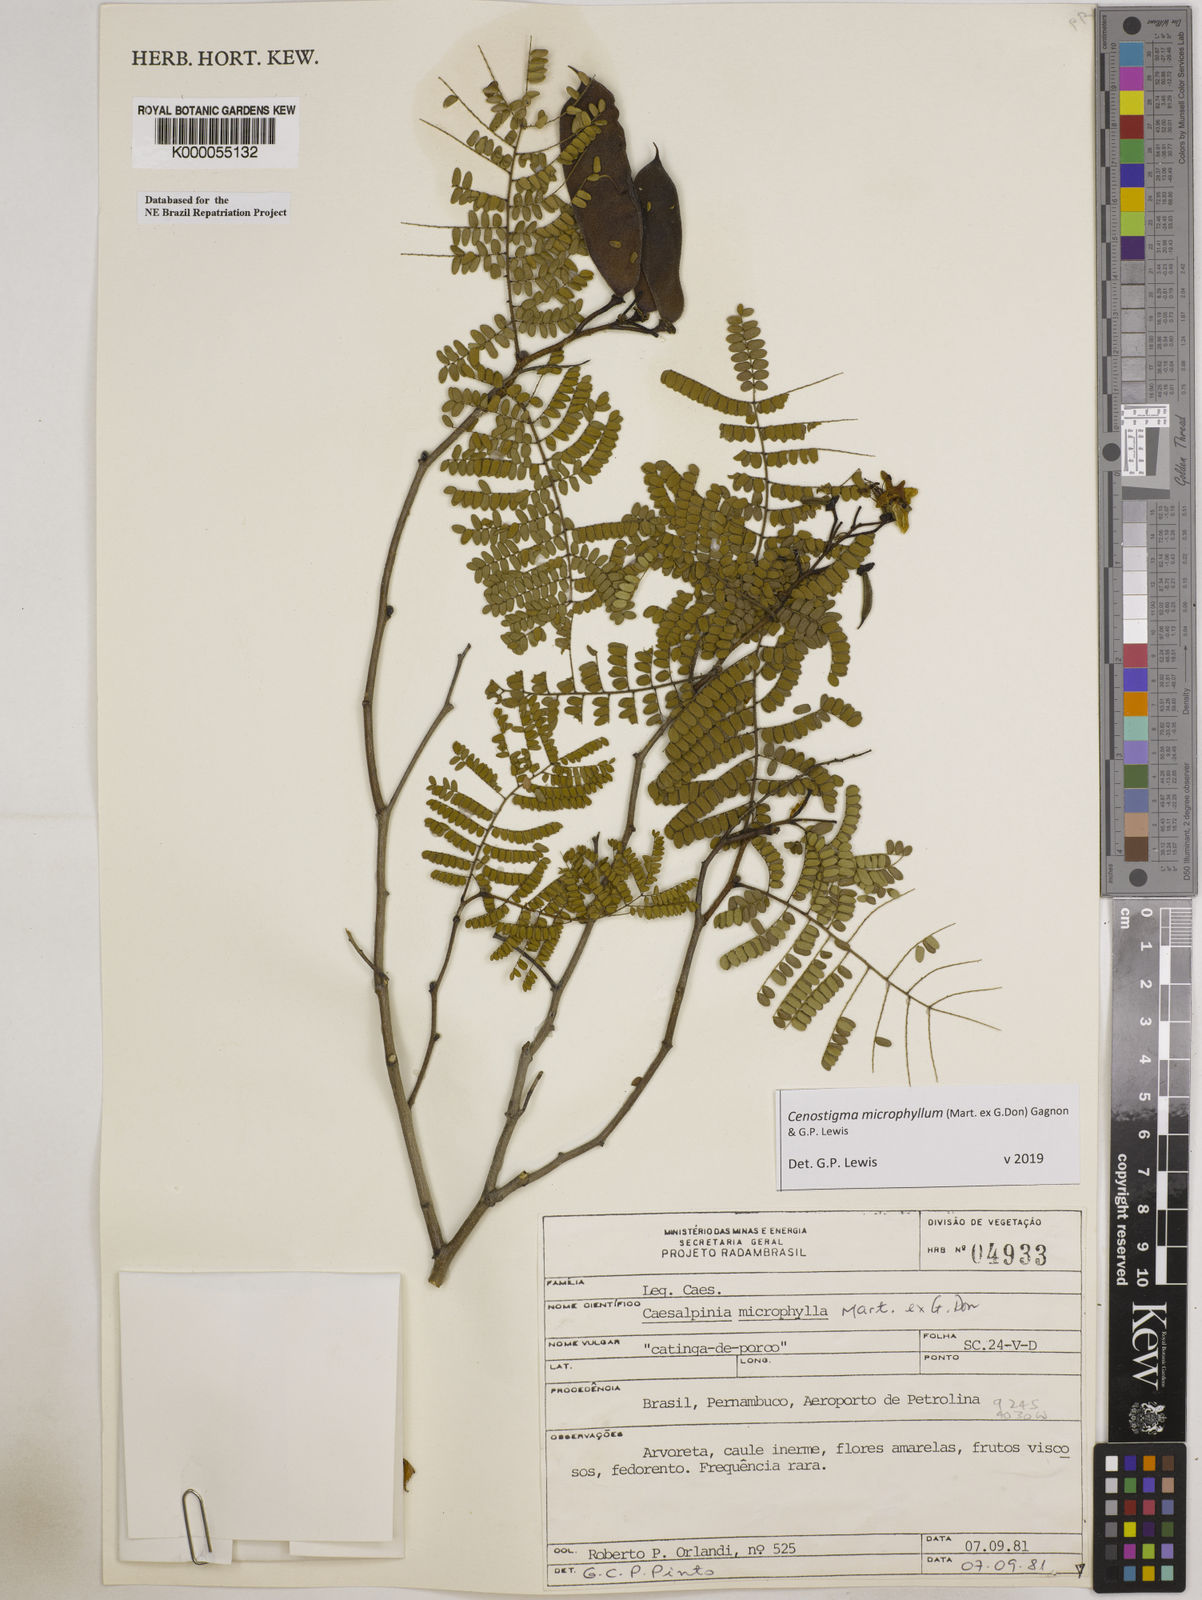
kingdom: Plantae
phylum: Tracheophyta
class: Magnoliopsida
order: Fabales
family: Fabaceae
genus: Cenostigma
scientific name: Cenostigma microphyllum
